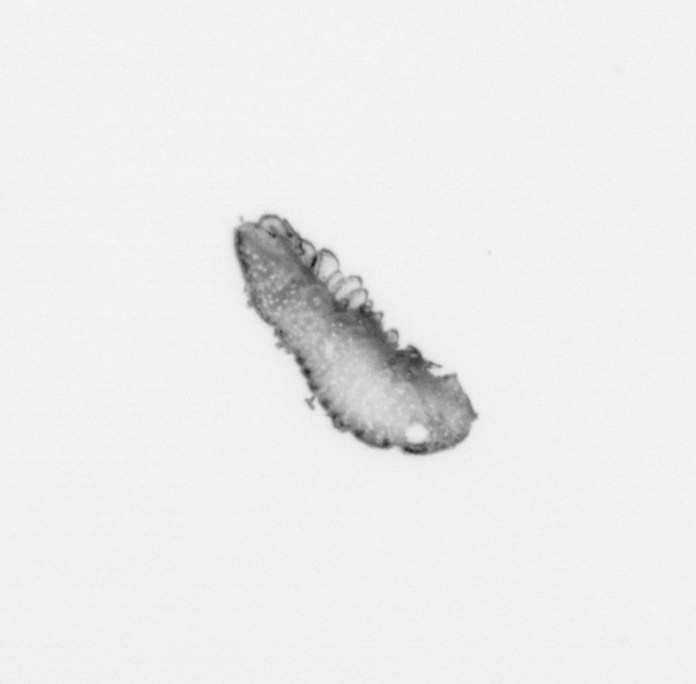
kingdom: Animalia
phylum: Annelida
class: Polychaeta
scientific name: Polychaeta
